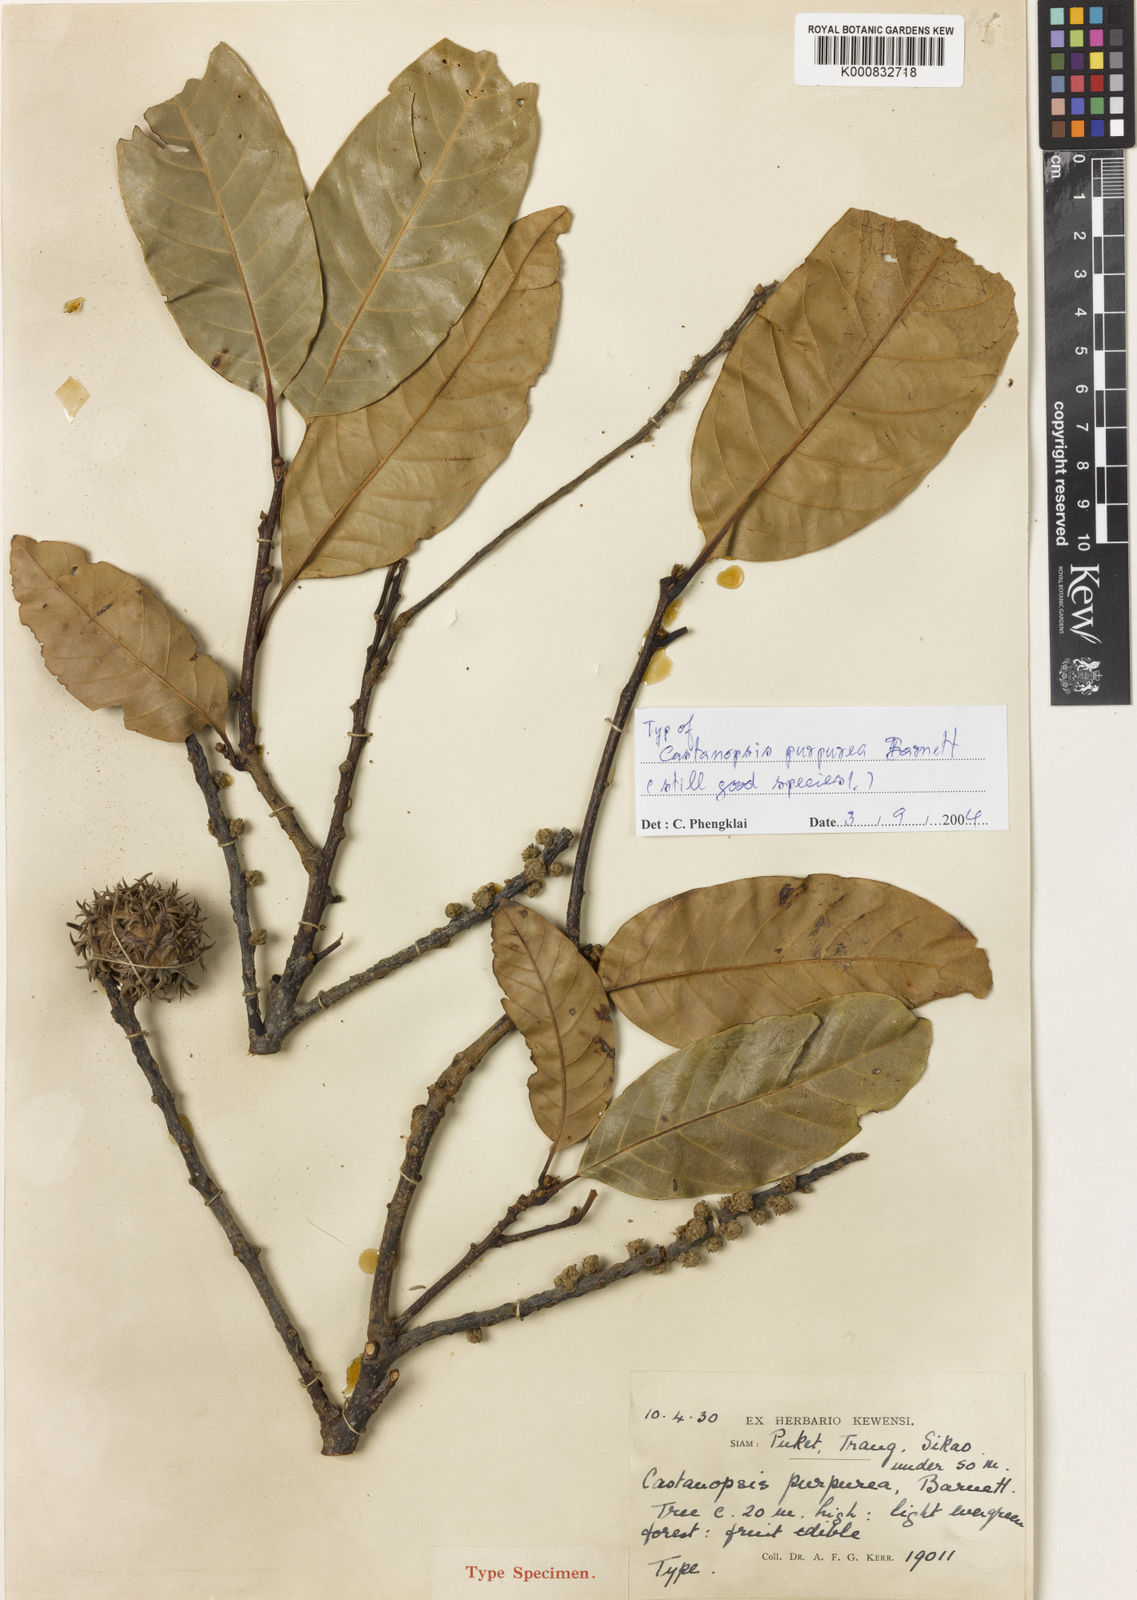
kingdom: Plantae
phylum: Tracheophyta
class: Magnoliopsida
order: Fagales
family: Fagaceae
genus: Castanopsis
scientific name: Castanopsis calathiformis
